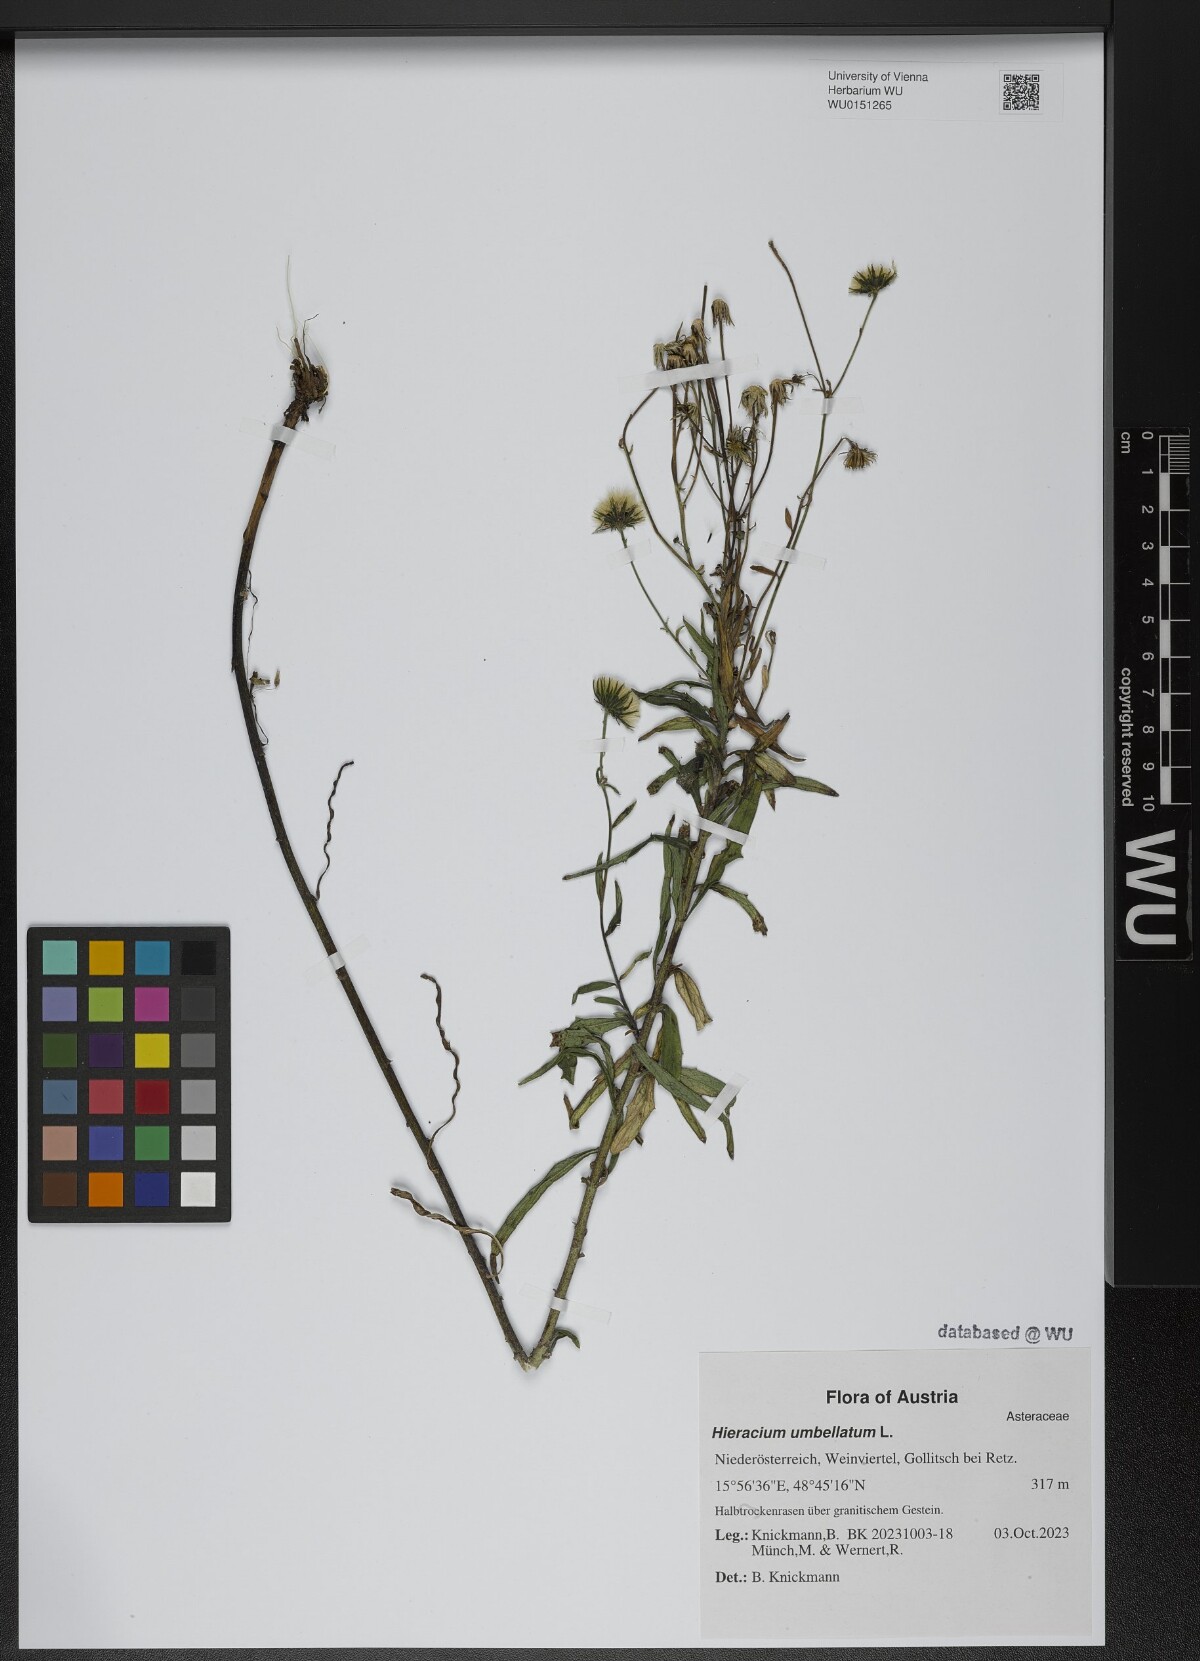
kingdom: Plantae
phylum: Tracheophyta
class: Magnoliopsida
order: Asterales
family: Asteraceae
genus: Hieracium
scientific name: Hieracium umbellatum
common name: Northern hawkweed
